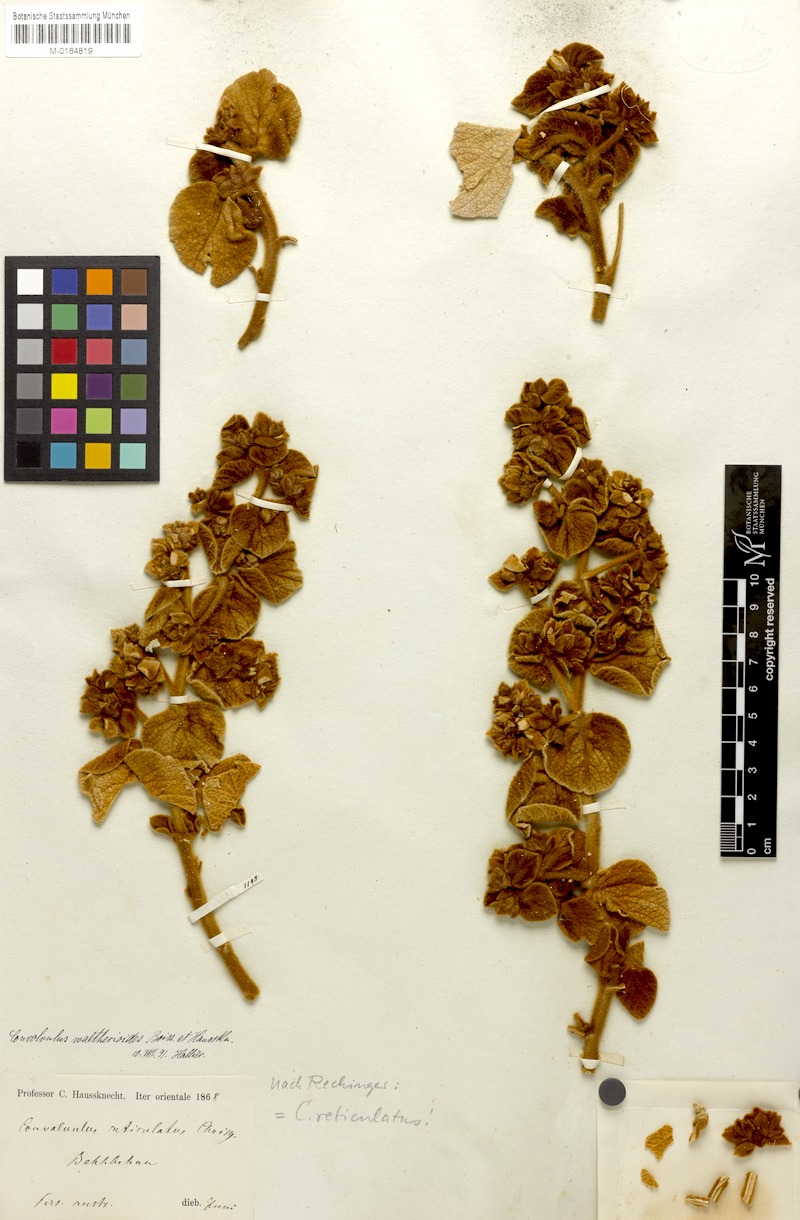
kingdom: Plantae
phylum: Tracheophyta
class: Magnoliopsida
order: Solanales
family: Convolvulaceae
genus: Convolvulus
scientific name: Convolvulus reticulatus
